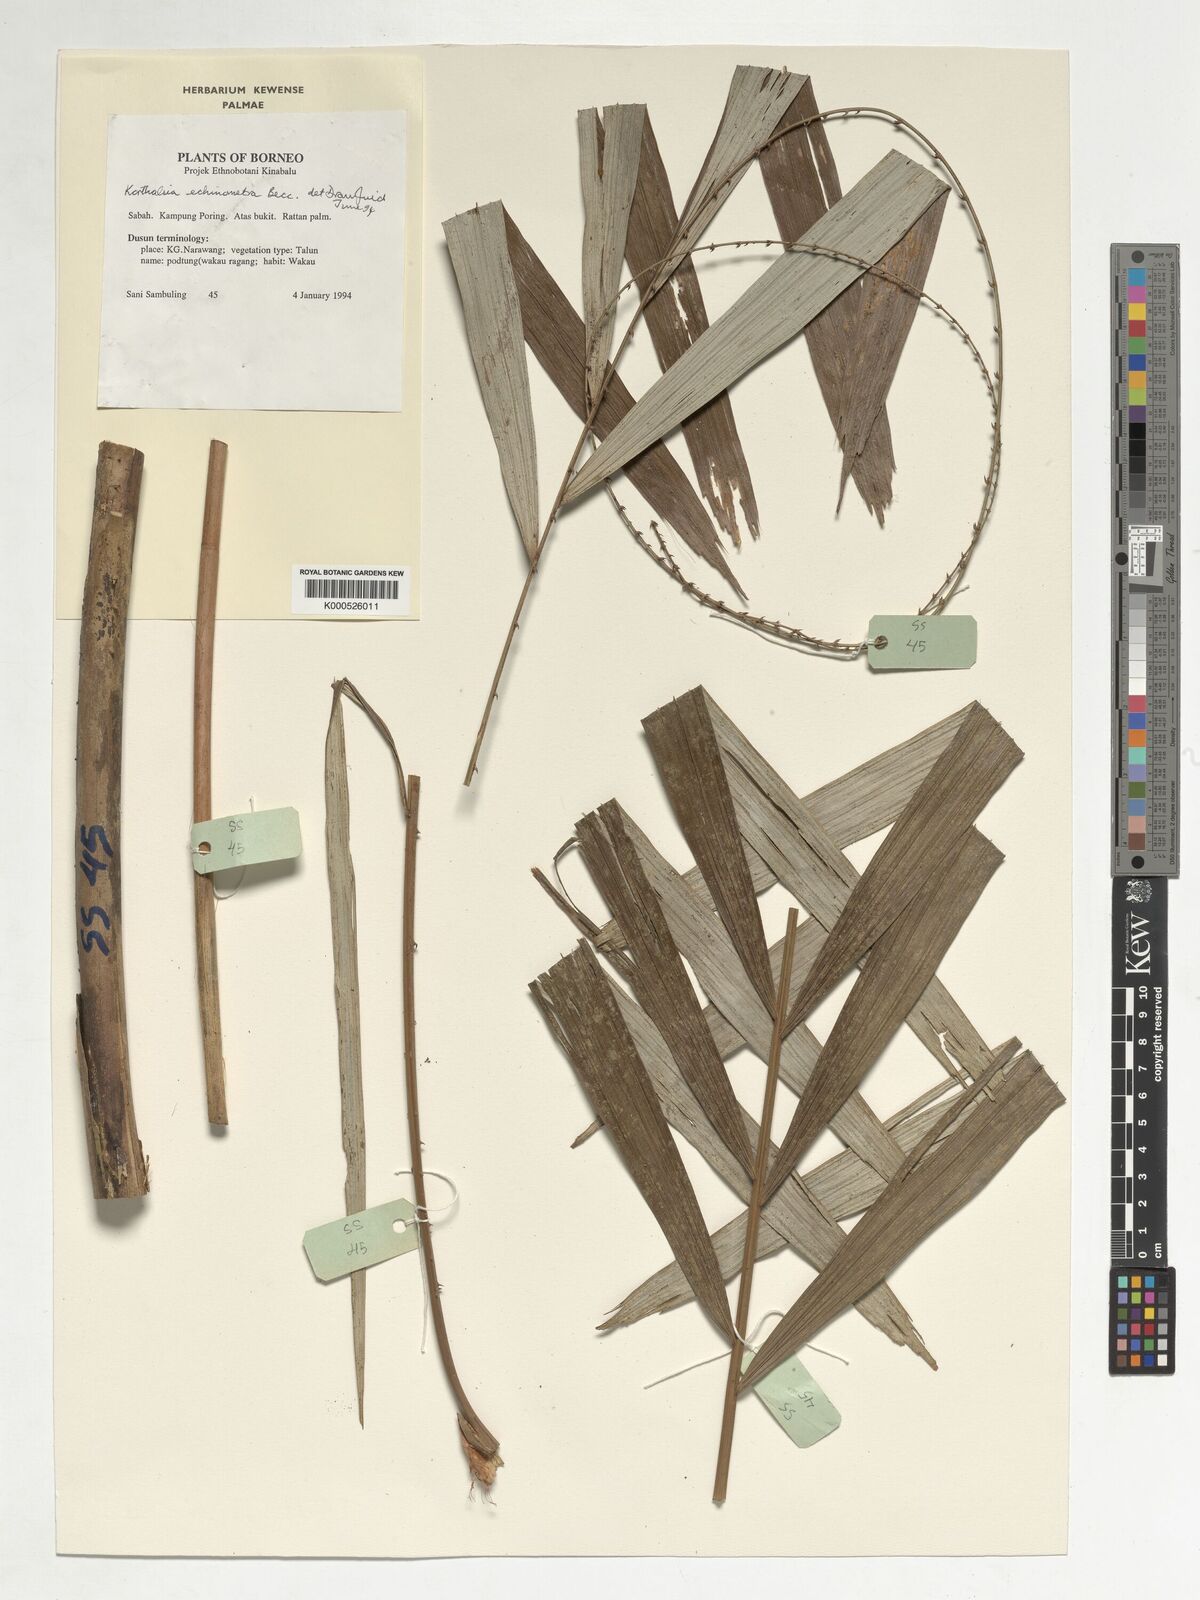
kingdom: Plantae
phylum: Tracheophyta
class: Liliopsida
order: Arecales
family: Arecaceae
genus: Korthalsia
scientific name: Korthalsia echinometra
